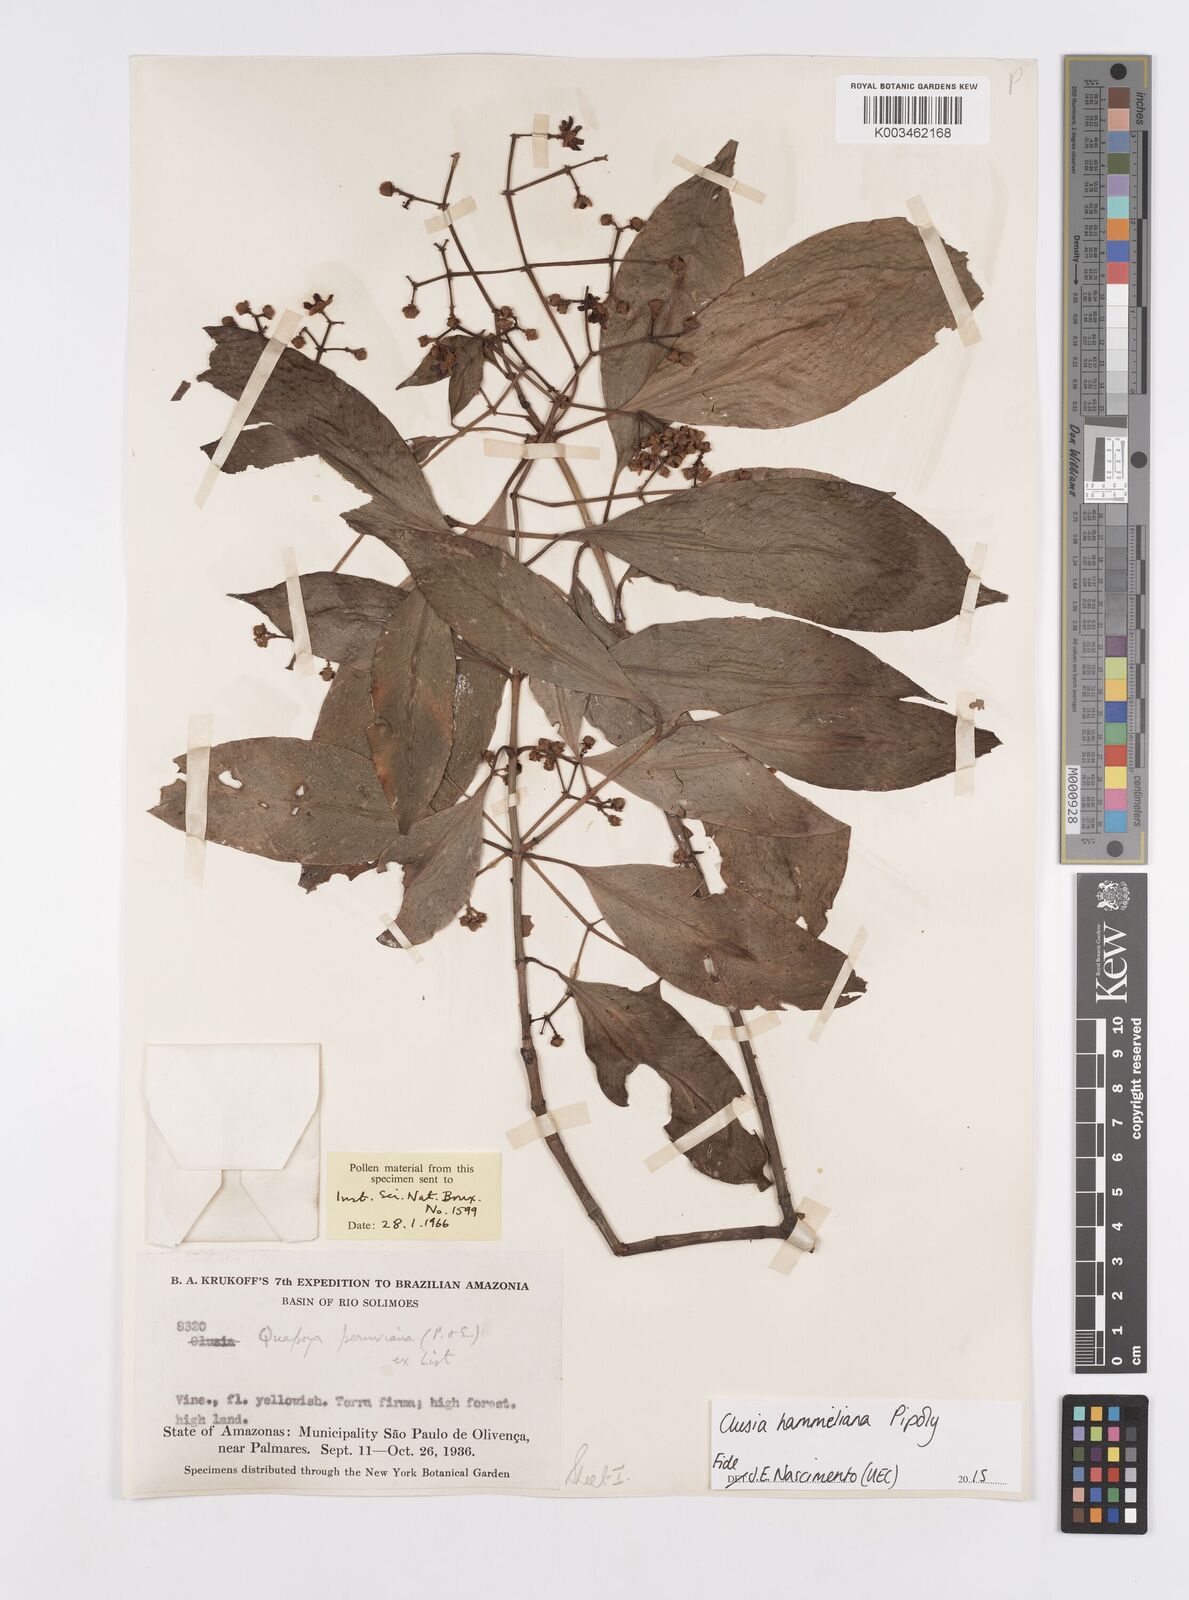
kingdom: Plantae
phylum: Tracheophyta
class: Magnoliopsida
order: Malpighiales
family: Clusiaceae
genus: Clusia
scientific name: Clusia hammeliana
